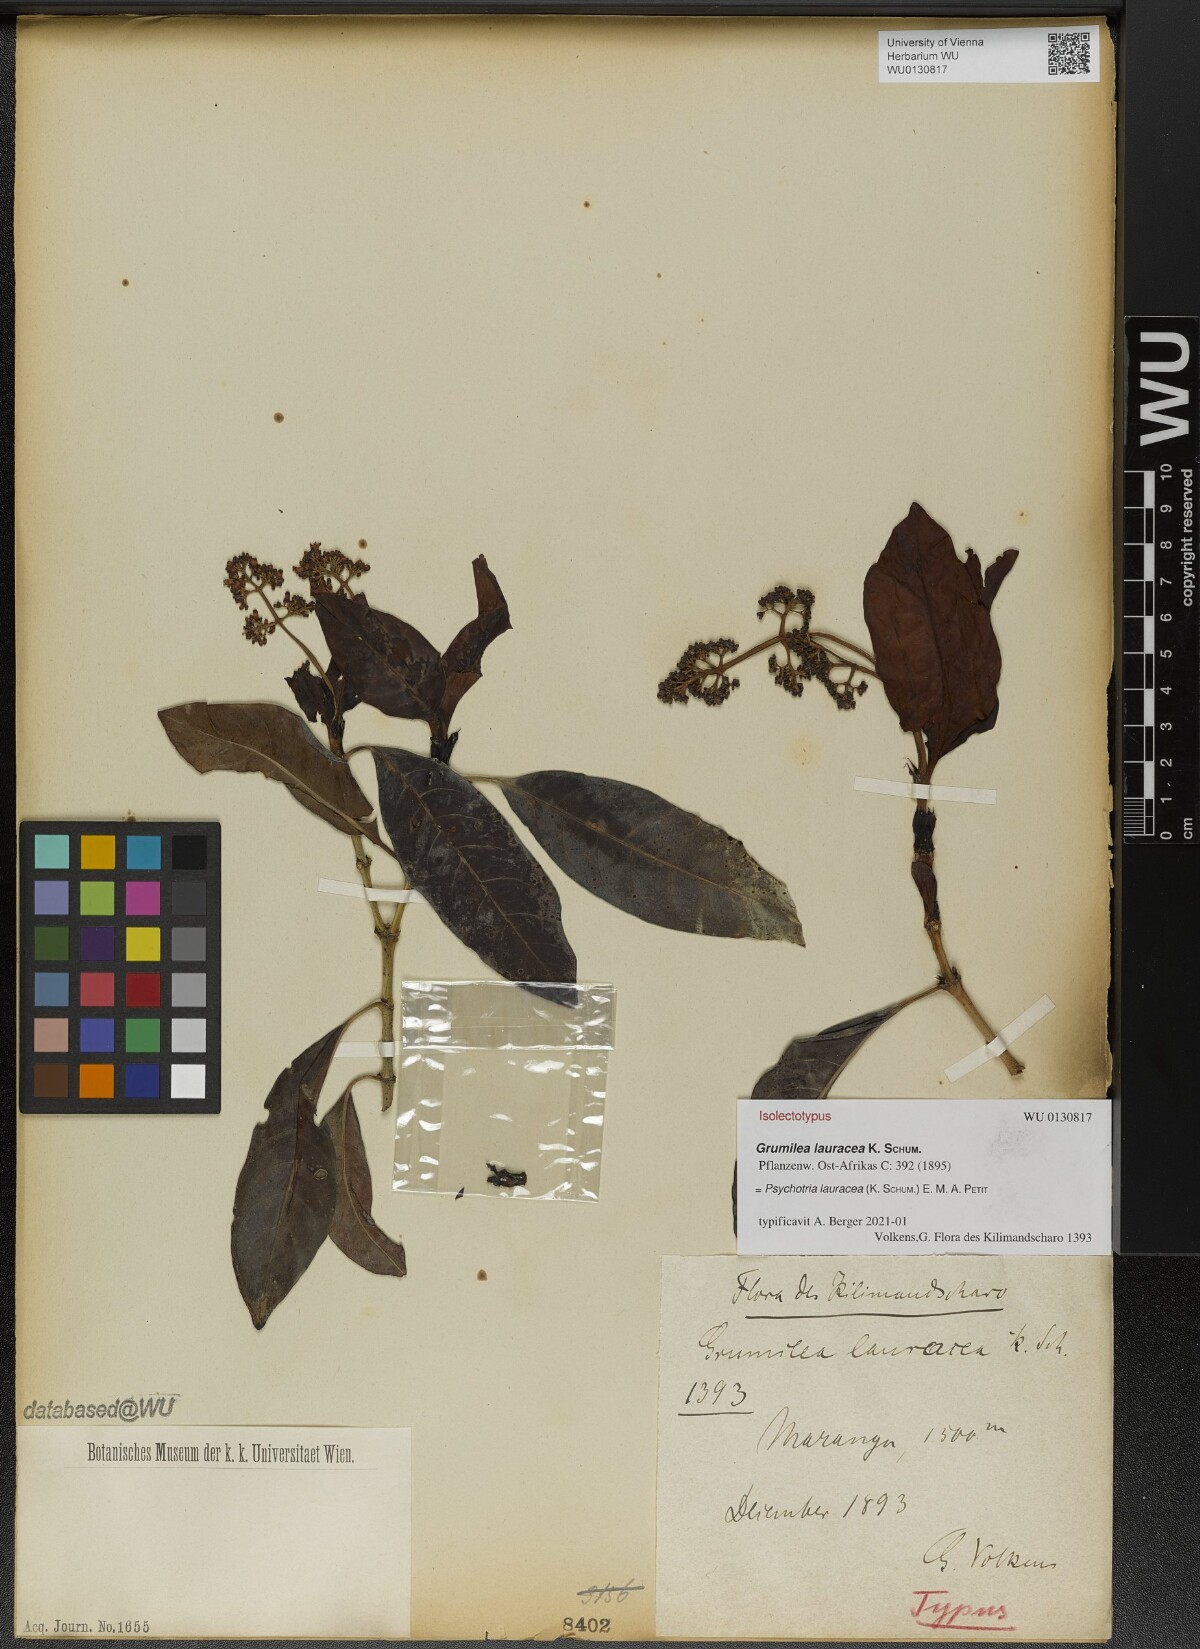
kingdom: Plantae
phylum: Tracheophyta
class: Magnoliopsida
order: Gentianales
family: Rubiaceae
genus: Psychotria
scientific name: Psychotria lauracea
